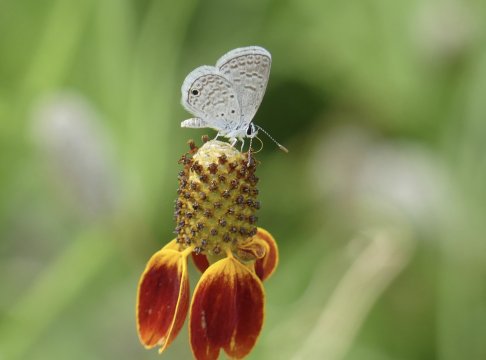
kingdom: Animalia
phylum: Arthropoda
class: Insecta
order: Lepidoptera
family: Lycaenidae
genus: Hemiargus
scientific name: Hemiargus ceraunus
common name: Ceraunus Blue
